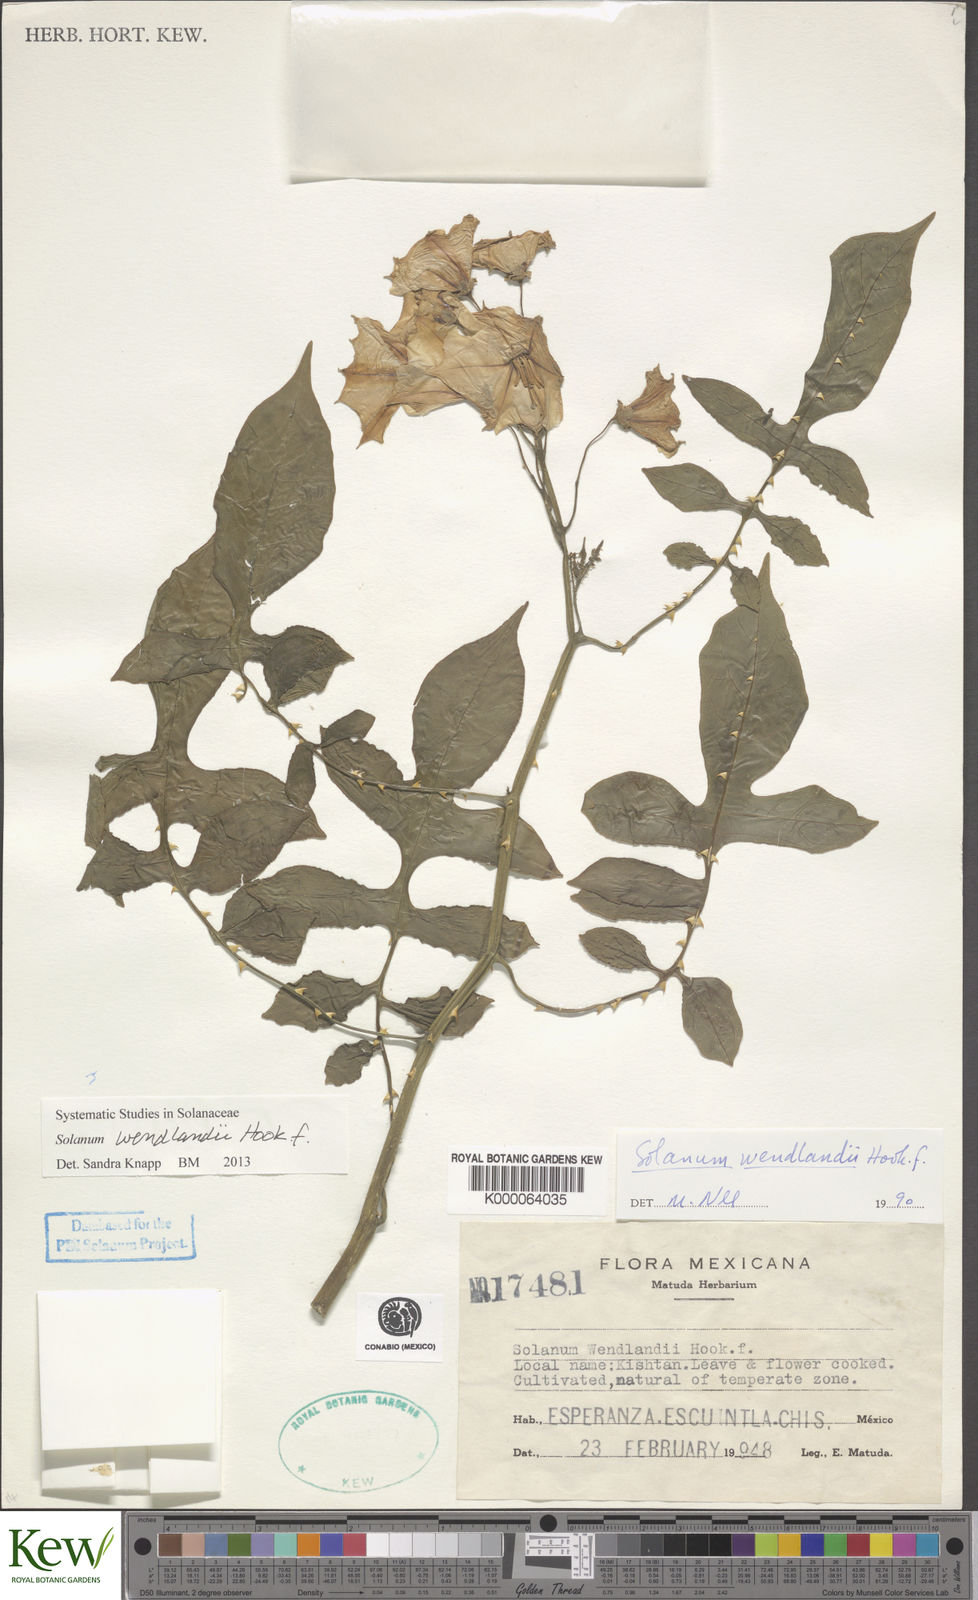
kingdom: Plantae
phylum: Tracheophyta
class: Magnoliopsida
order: Solanales
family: Solanaceae
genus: Solanum
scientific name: Solanum wendlandii
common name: Costa rican nightshade
